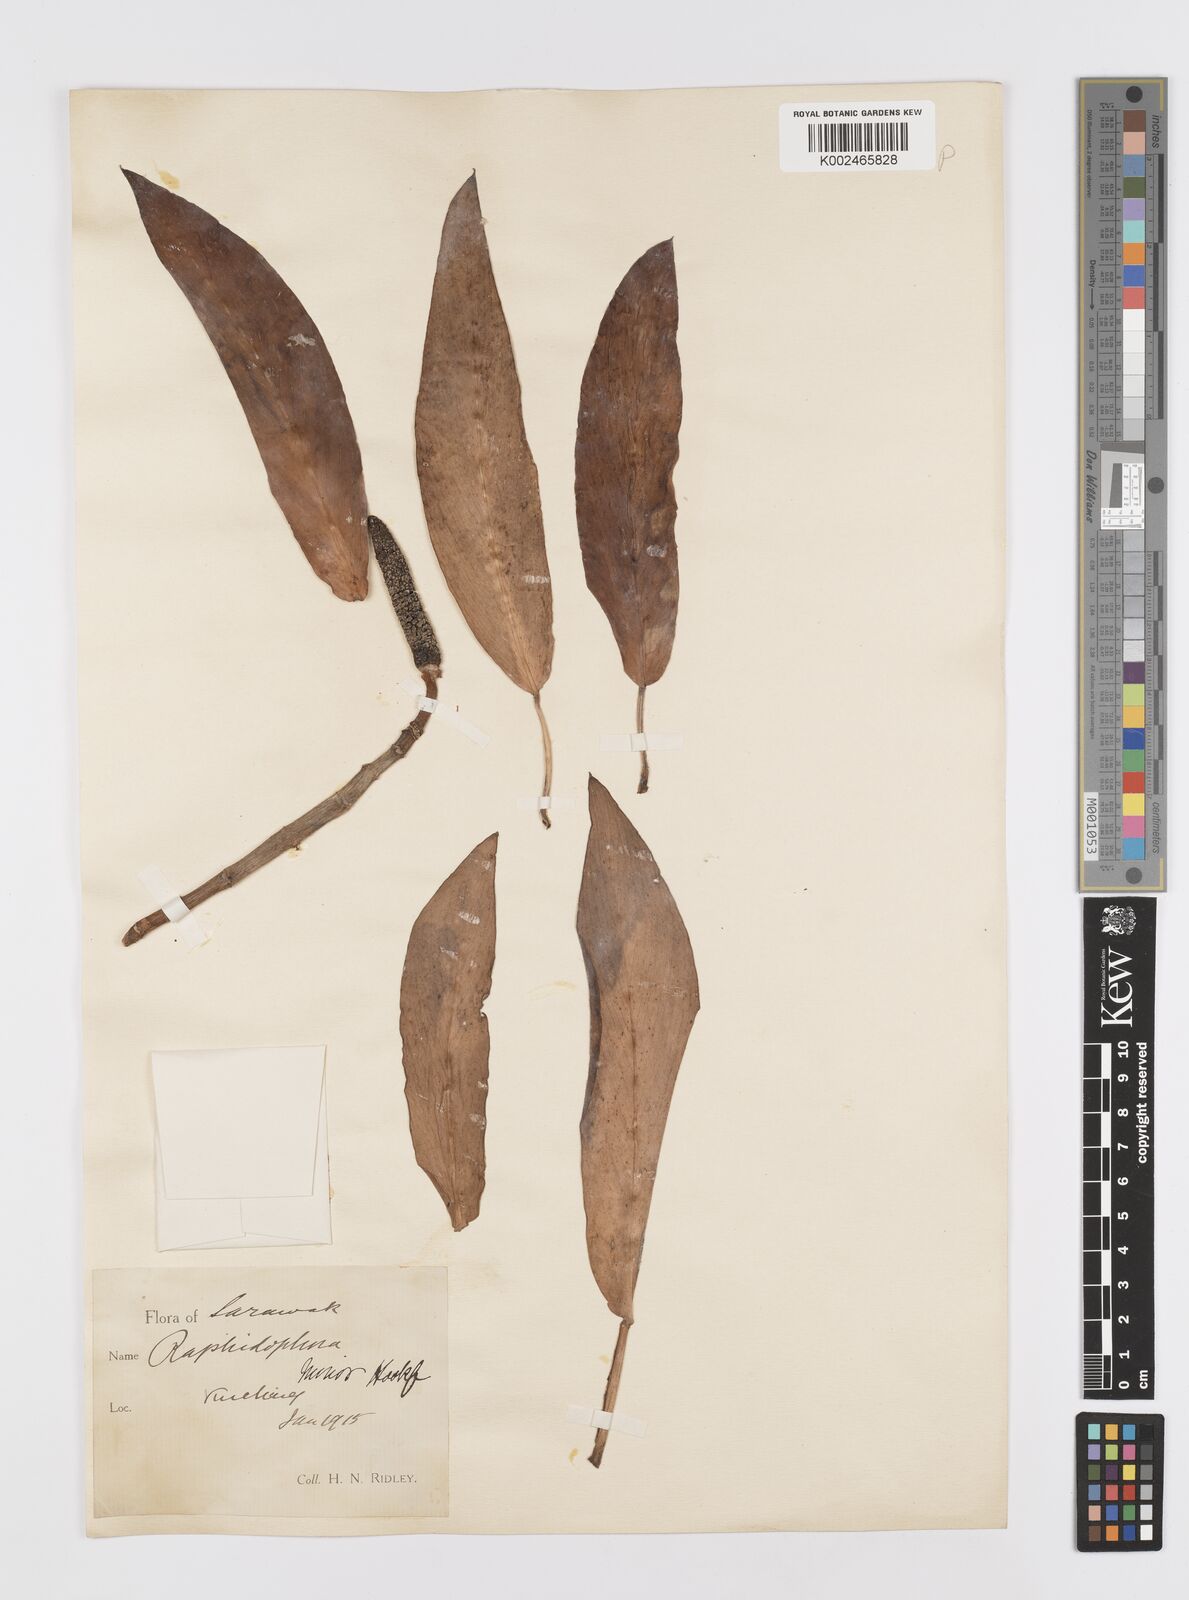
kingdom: Plantae
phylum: Tracheophyta
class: Liliopsida
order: Alismatales
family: Araceae
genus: Rhaphidophora
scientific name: Rhaphidophora minor
